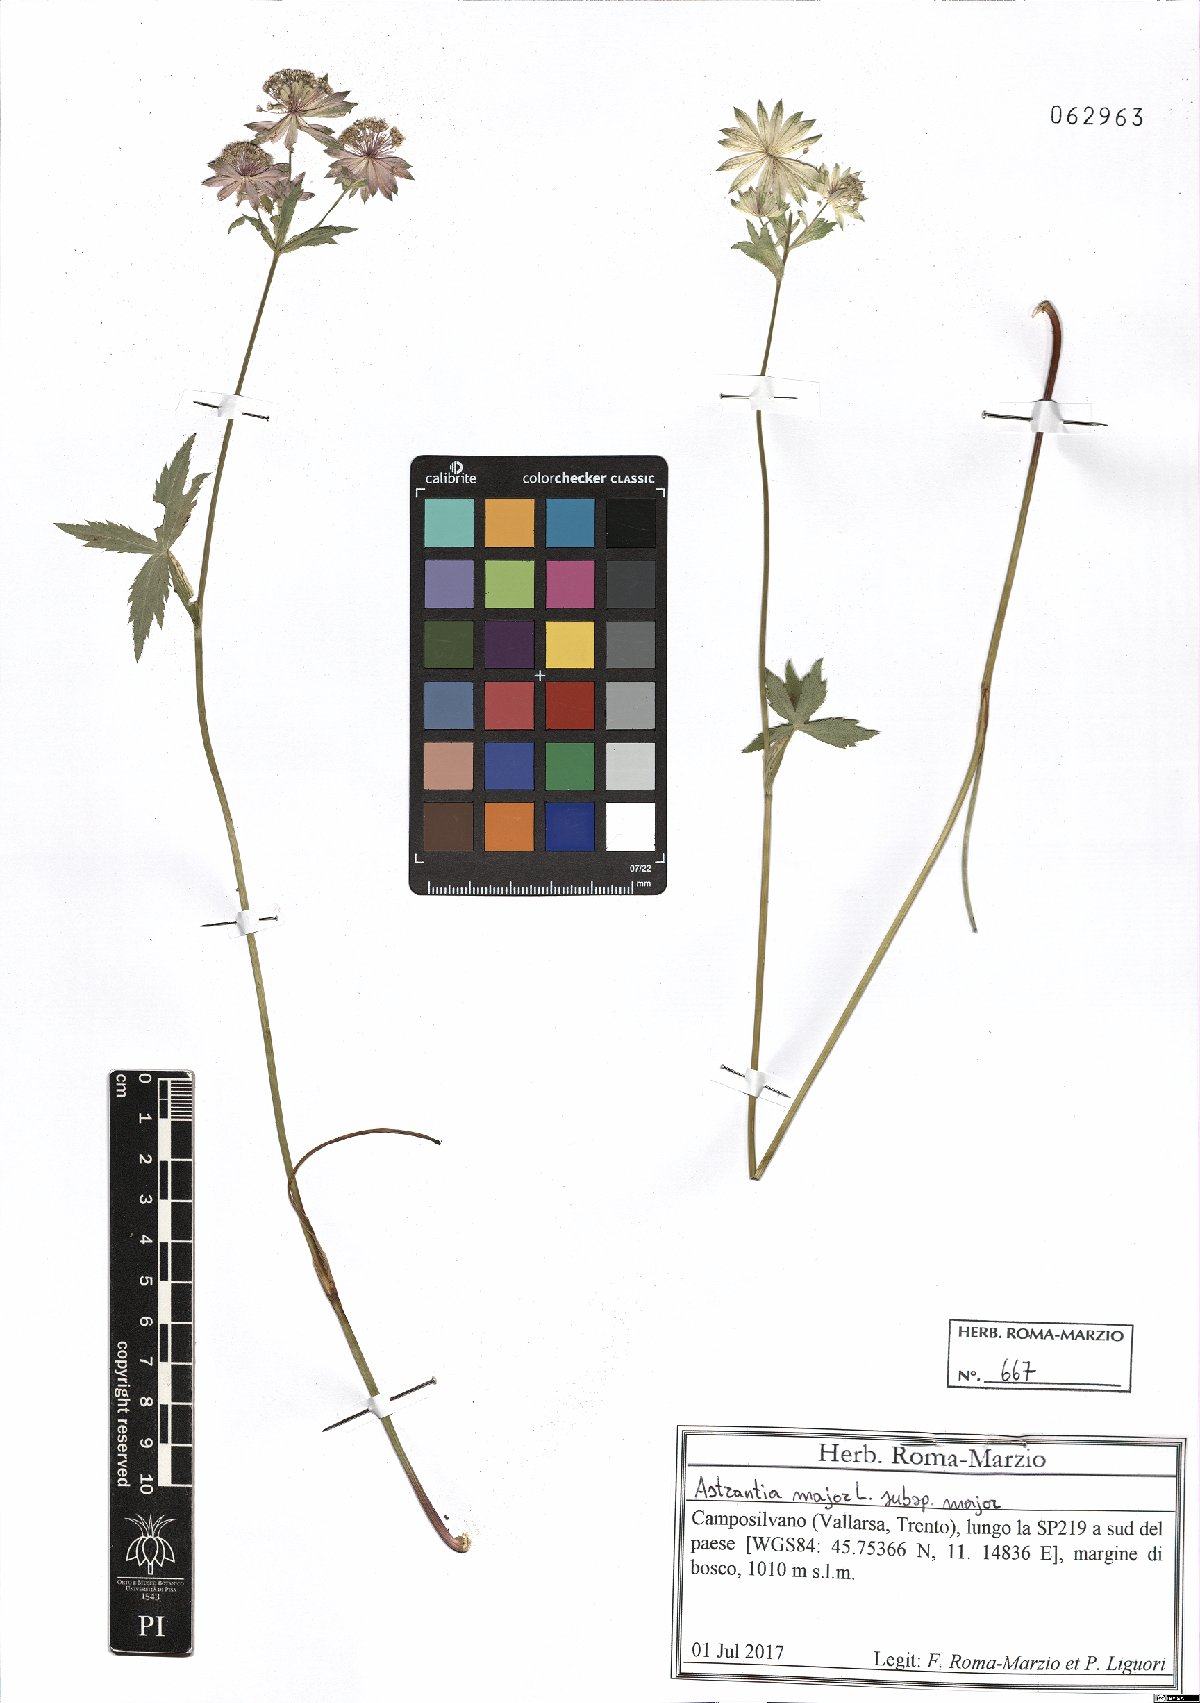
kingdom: Plantae
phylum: Tracheophyta
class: Magnoliopsida
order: Apiales
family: Apiaceae
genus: Astrantia
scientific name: Astrantia major
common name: Greater masterwort
